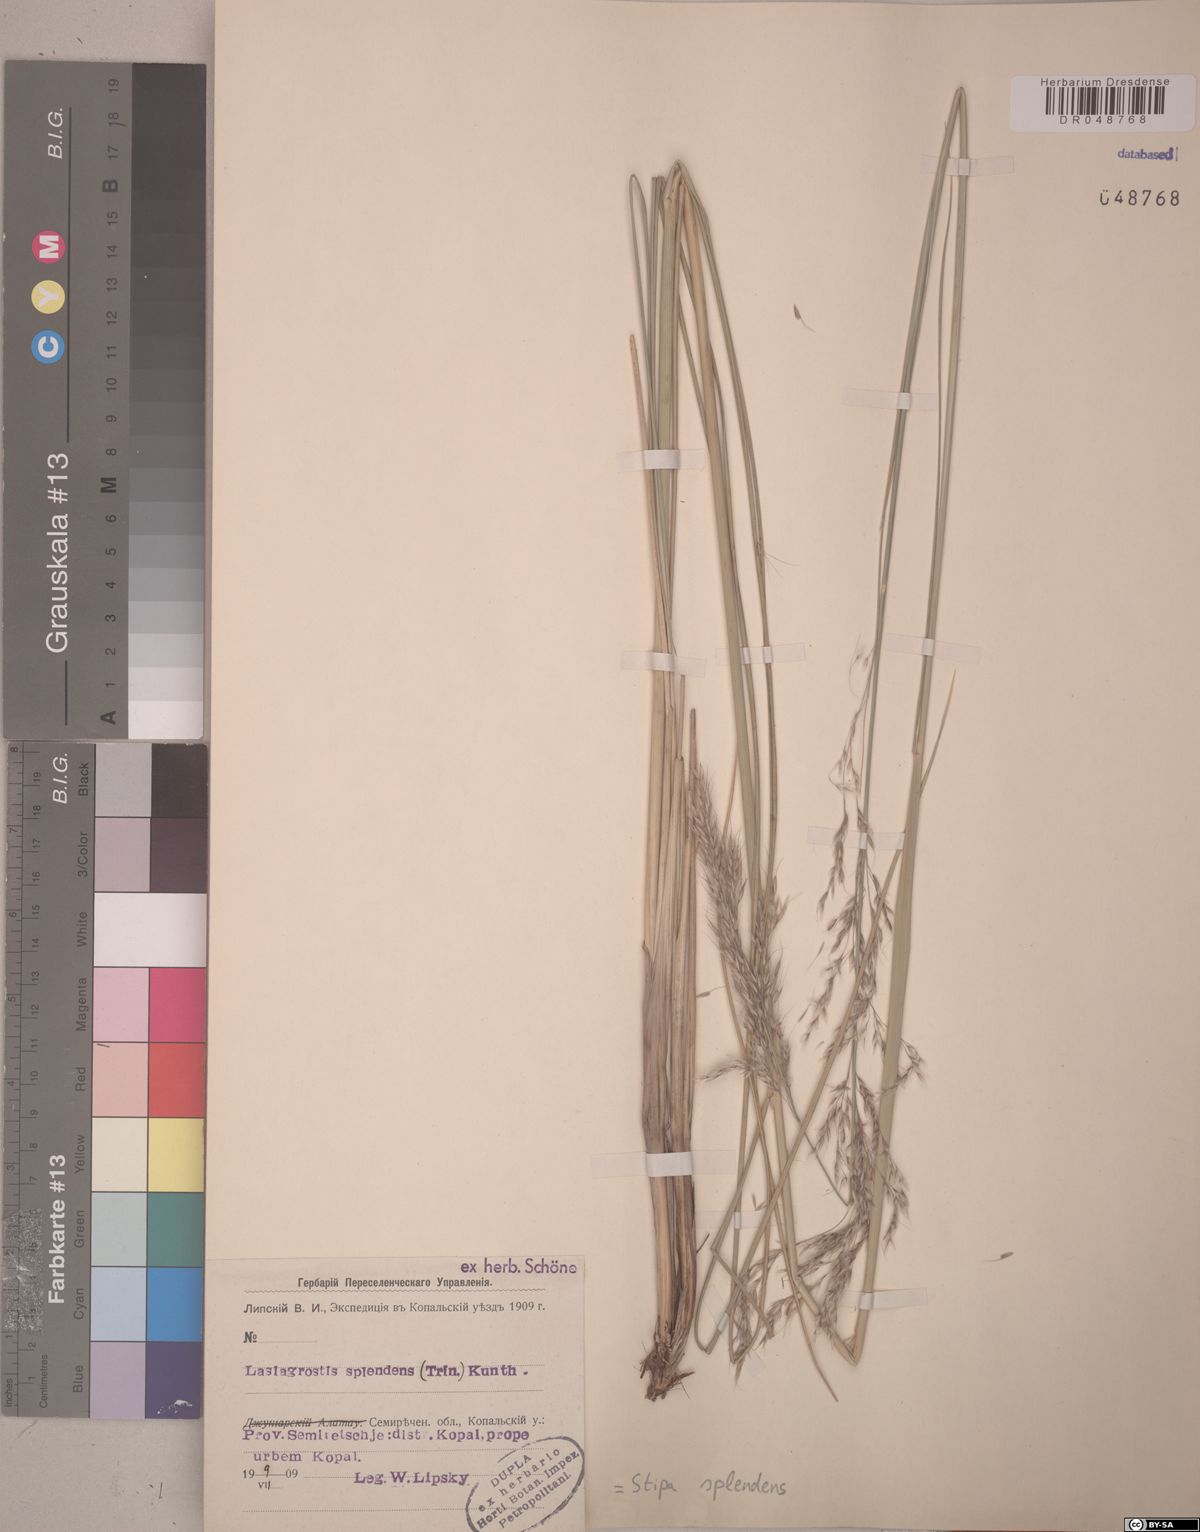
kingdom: Plantae
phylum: Tracheophyta
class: Liliopsida
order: Poales
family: Poaceae
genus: Neotrinia
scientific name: Neotrinia splendens
